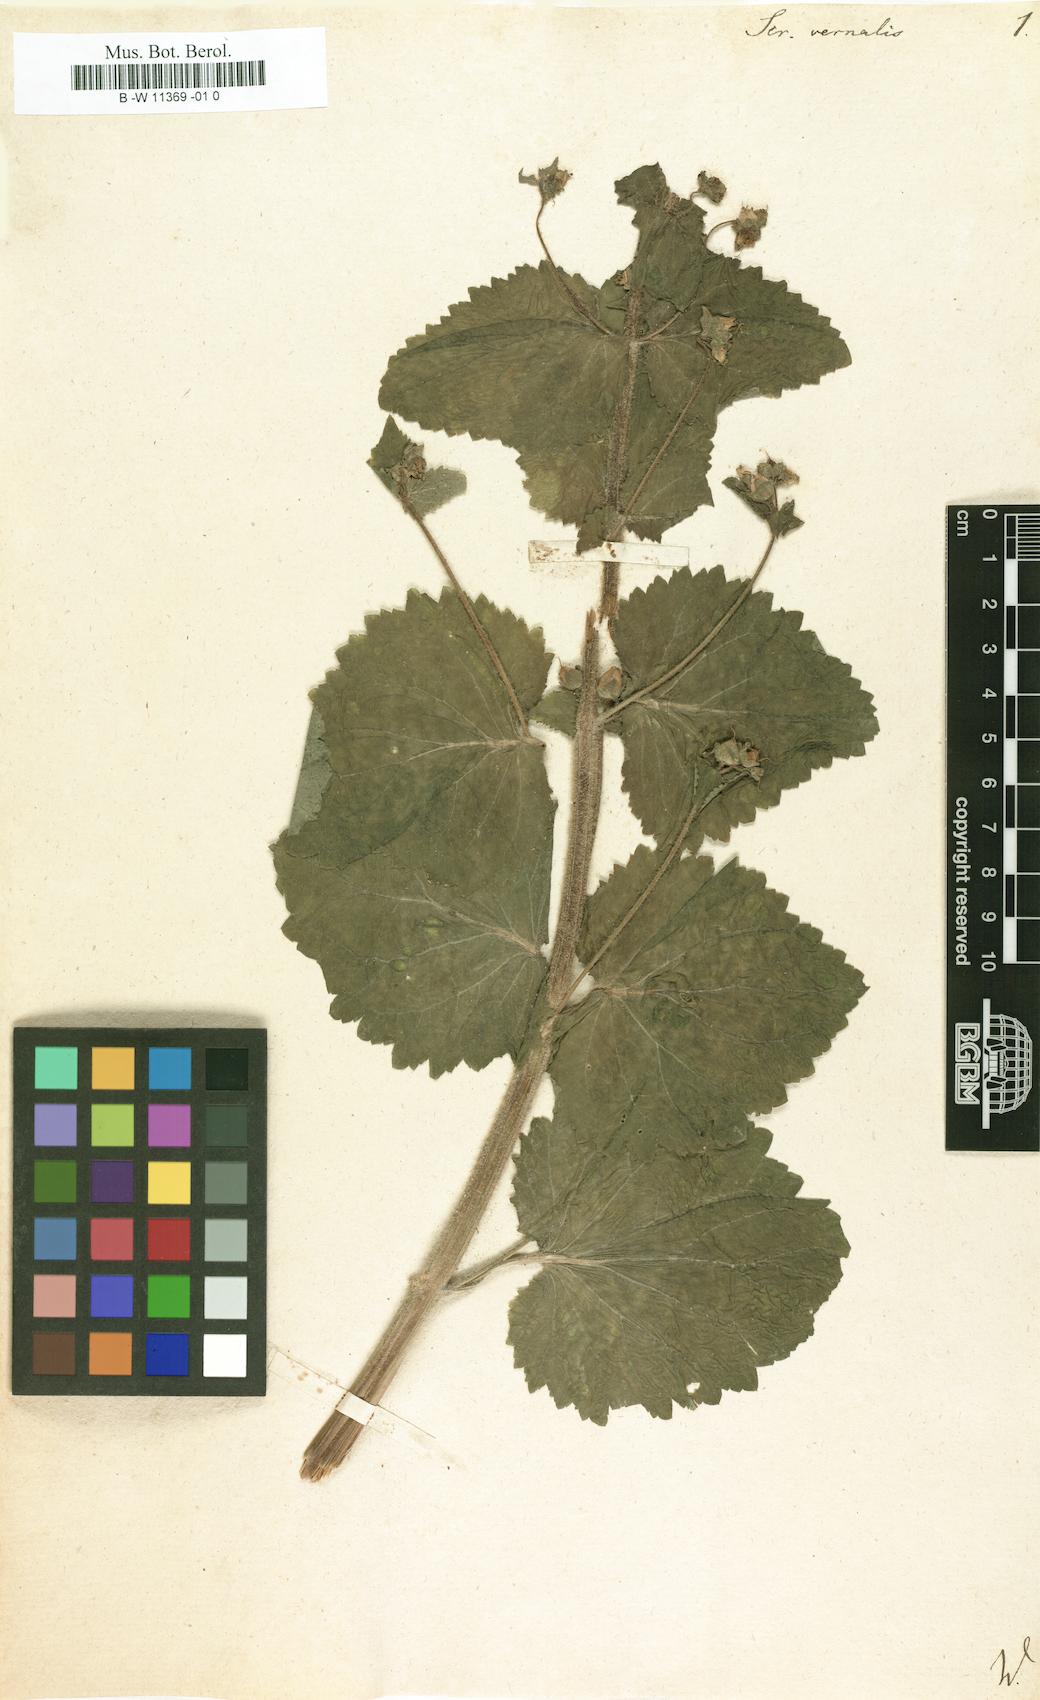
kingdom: Plantae
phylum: Tracheophyta
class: Magnoliopsida
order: Lamiales
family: Scrophulariaceae
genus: Scrophularia
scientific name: Scrophularia vernalis
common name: Yellow figwort
